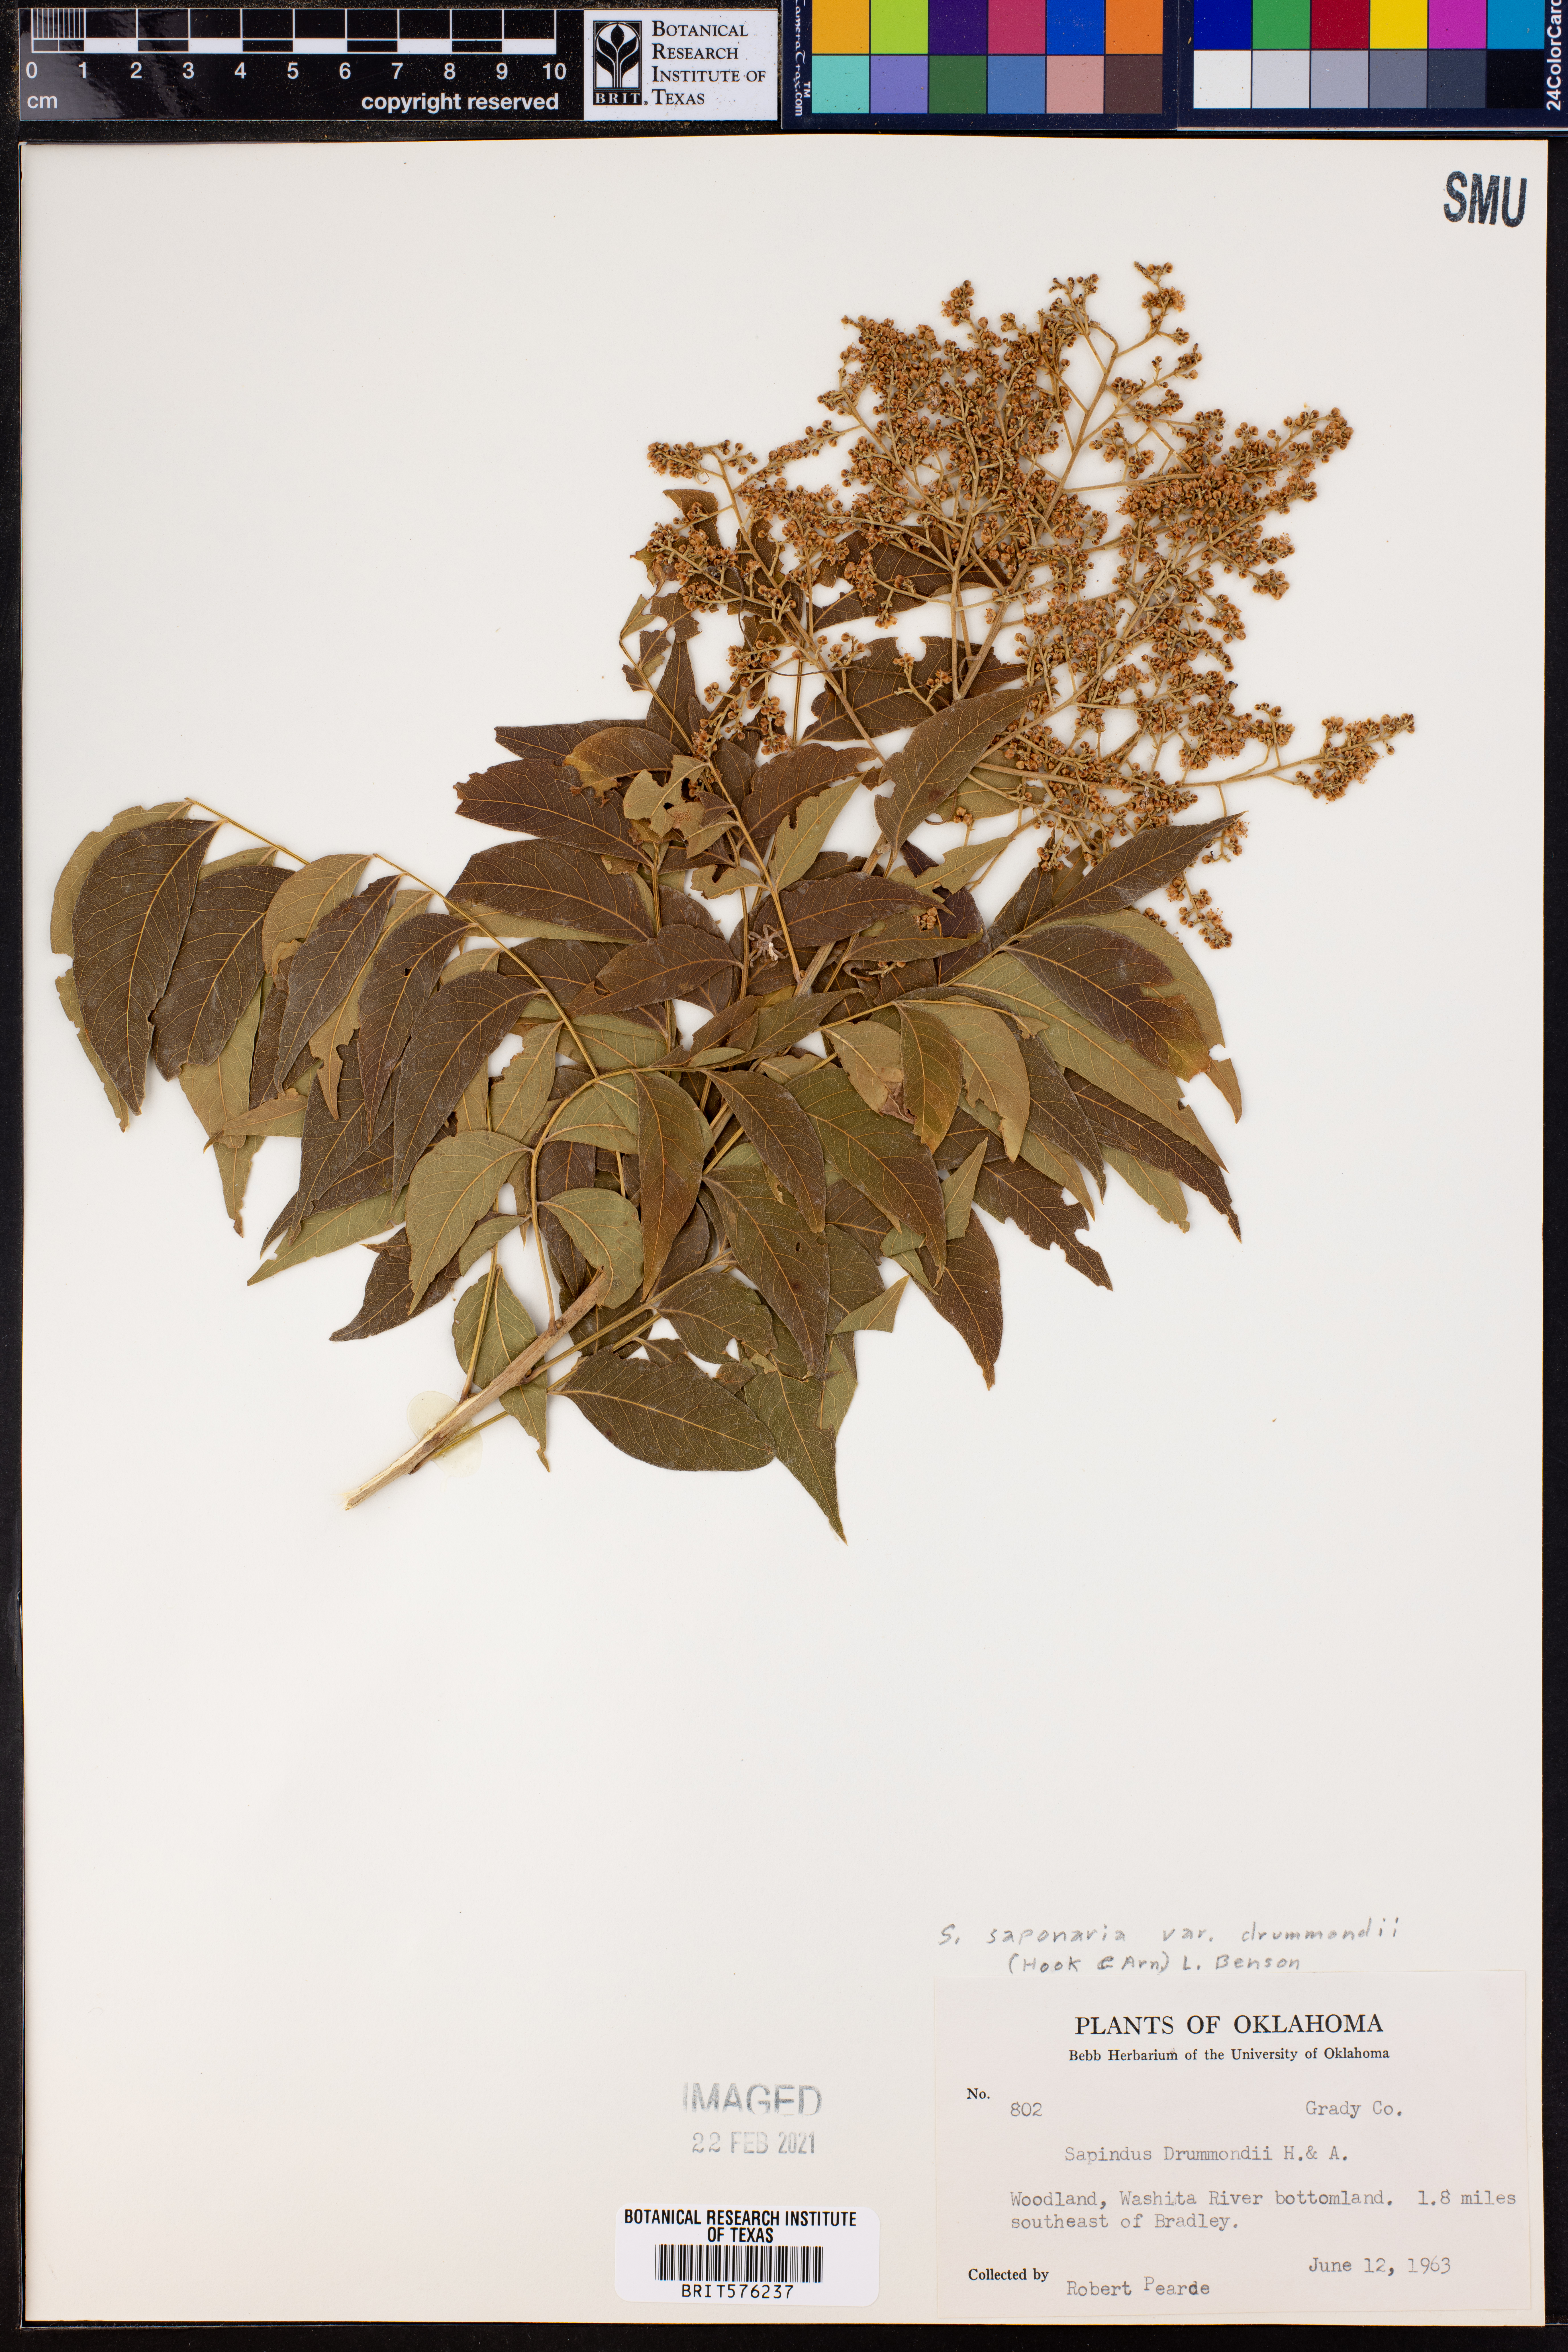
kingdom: Plantae
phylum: Tracheophyta
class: Magnoliopsida
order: Sapindales
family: Sapindaceae
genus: Sapindus
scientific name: Sapindus drummondii
